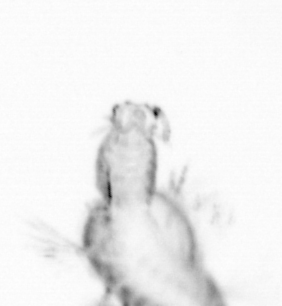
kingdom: Animalia
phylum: Annelida
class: Polychaeta
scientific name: Polychaeta
